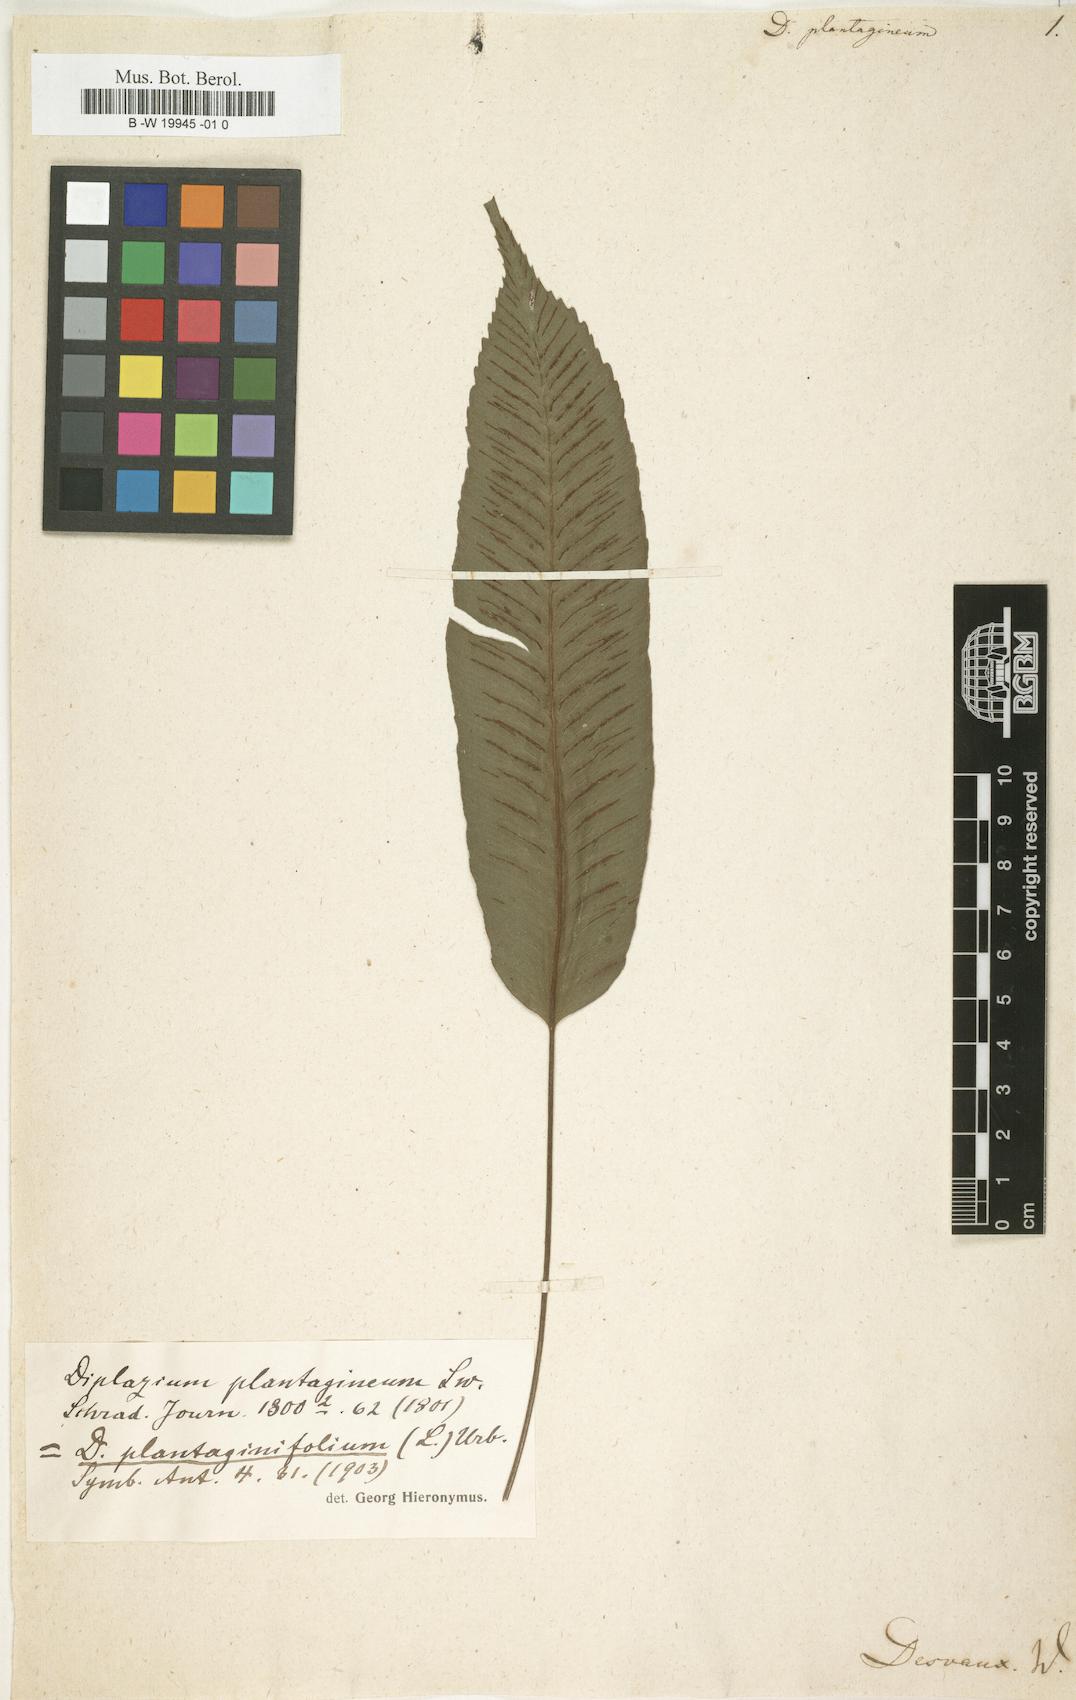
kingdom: Plantae
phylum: Tracheophyta
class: Polypodiopsida
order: Polypodiales
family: Athyriaceae
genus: Diplazium
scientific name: Diplazium plantaginifolium
